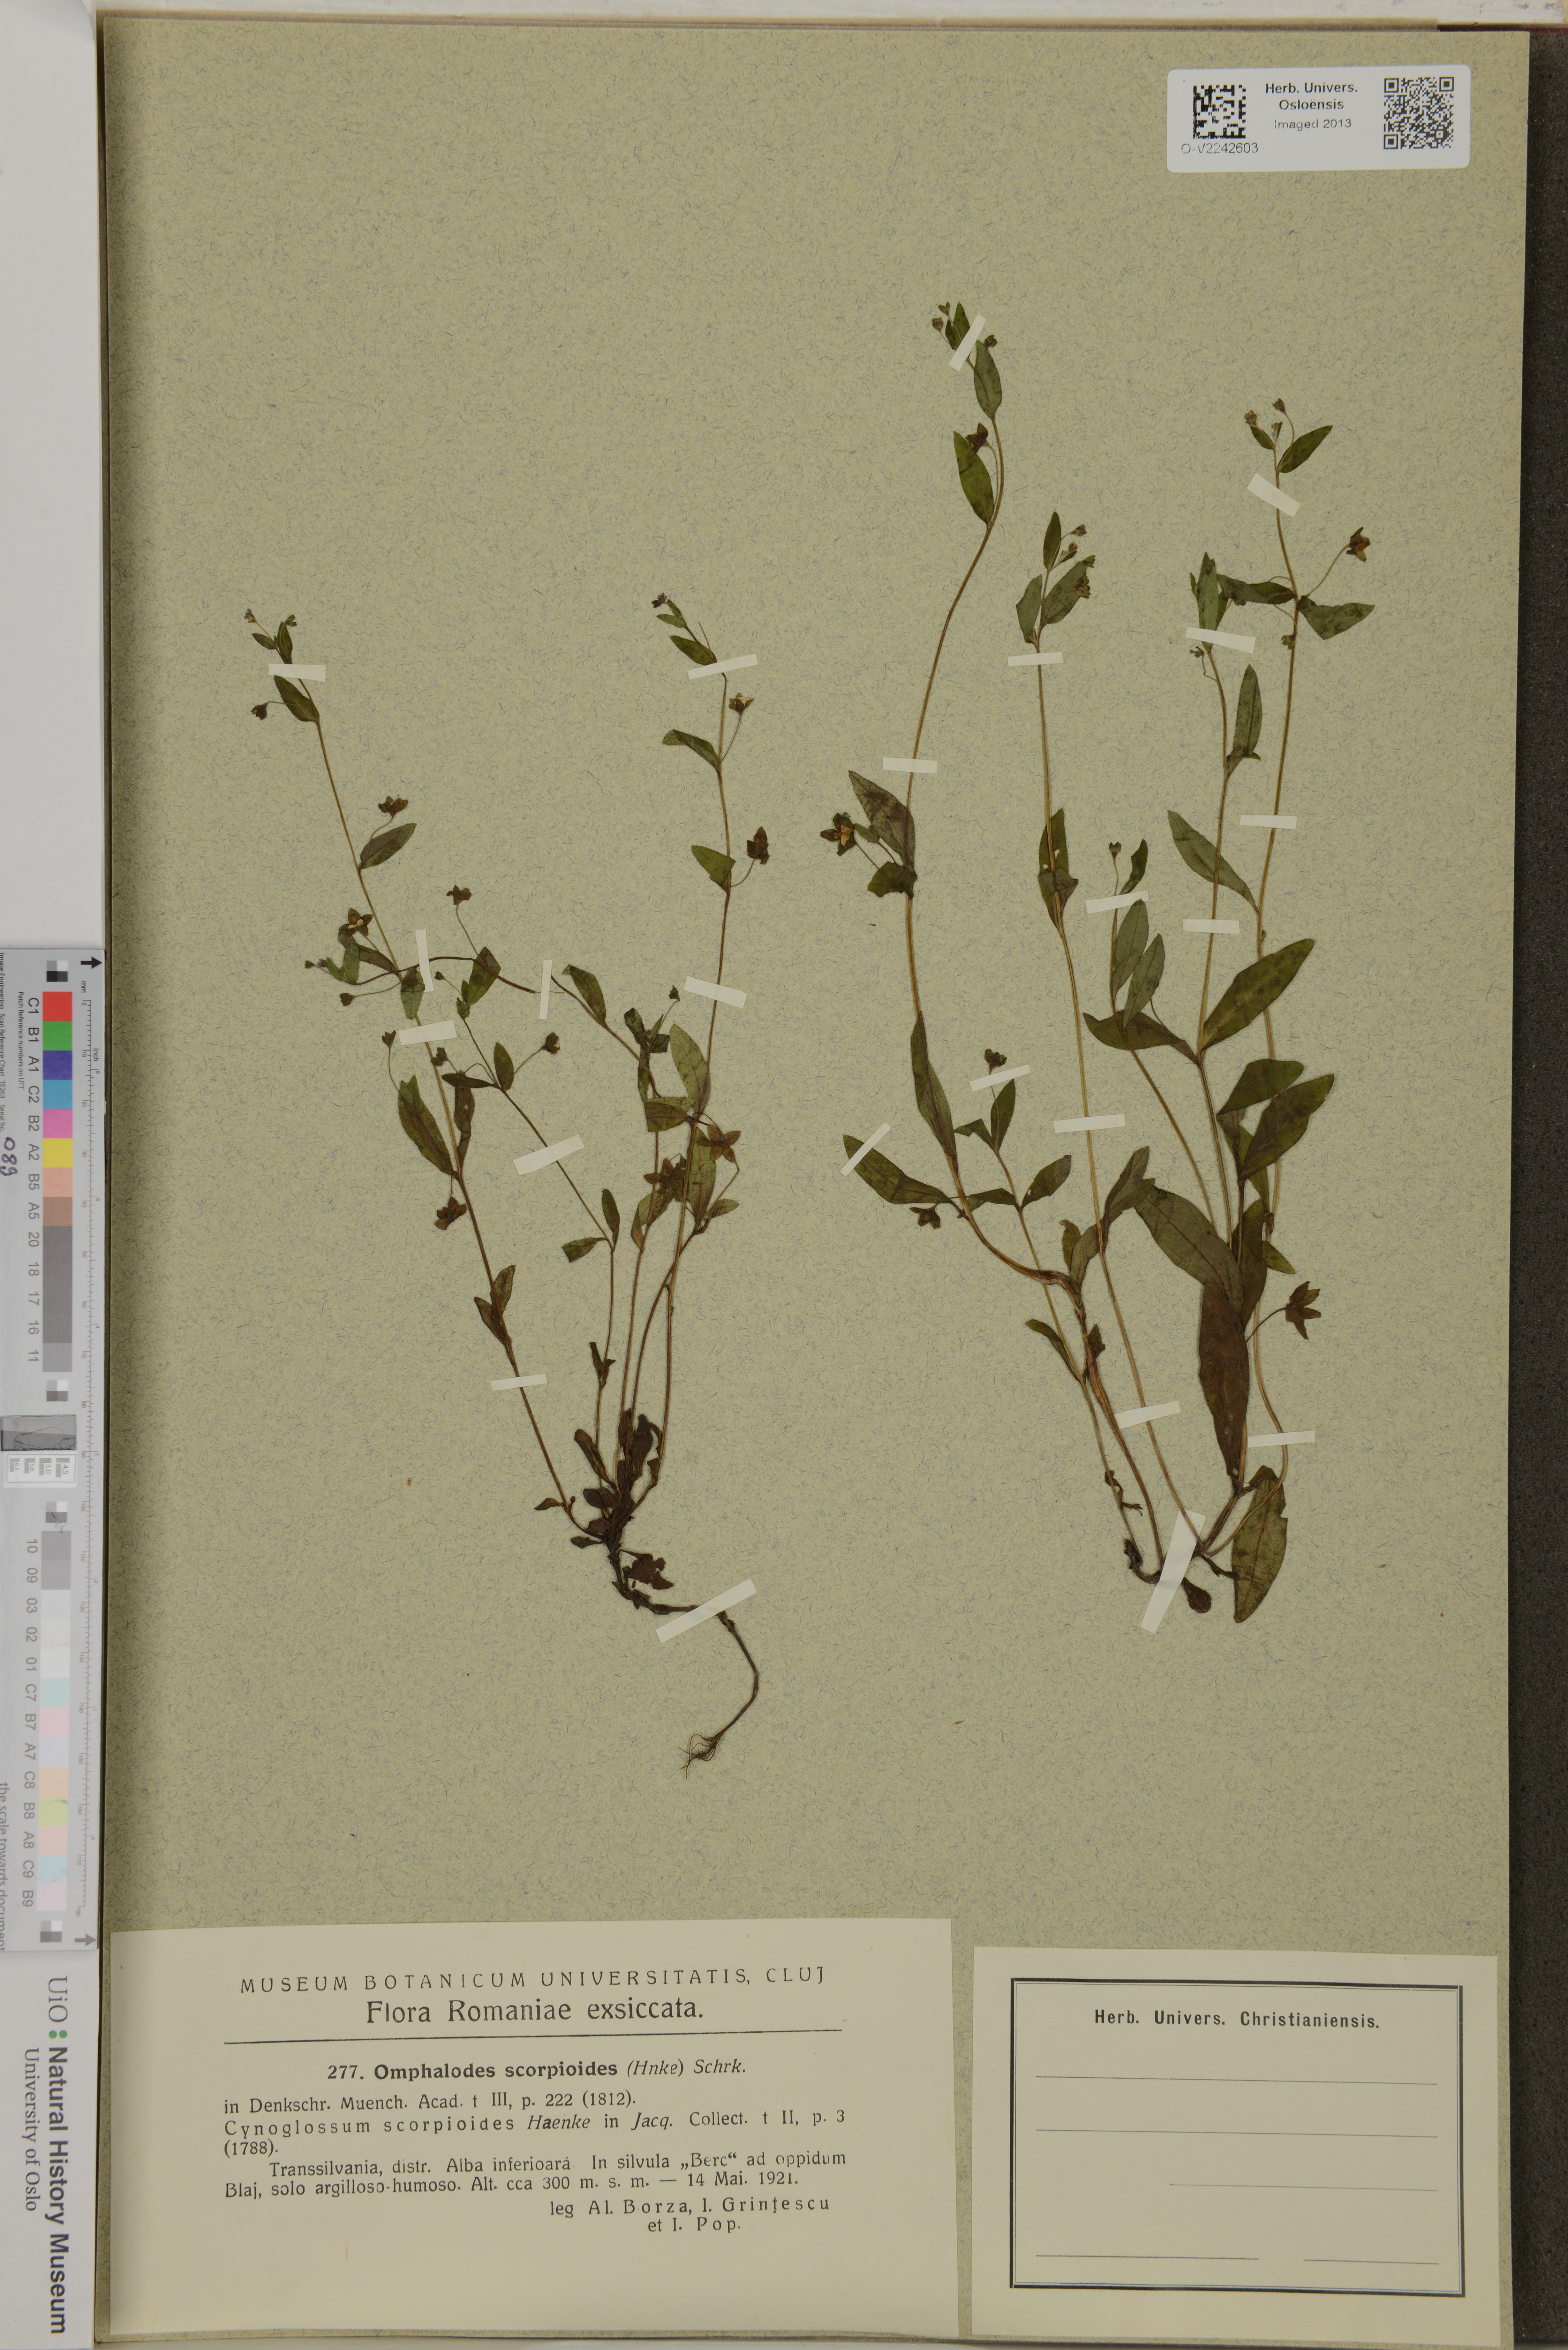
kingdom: Plantae
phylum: Tracheophyta
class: Magnoliopsida
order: Boraginales
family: Boraginaceae
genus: Memoremea
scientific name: Memoremea scorpioides
